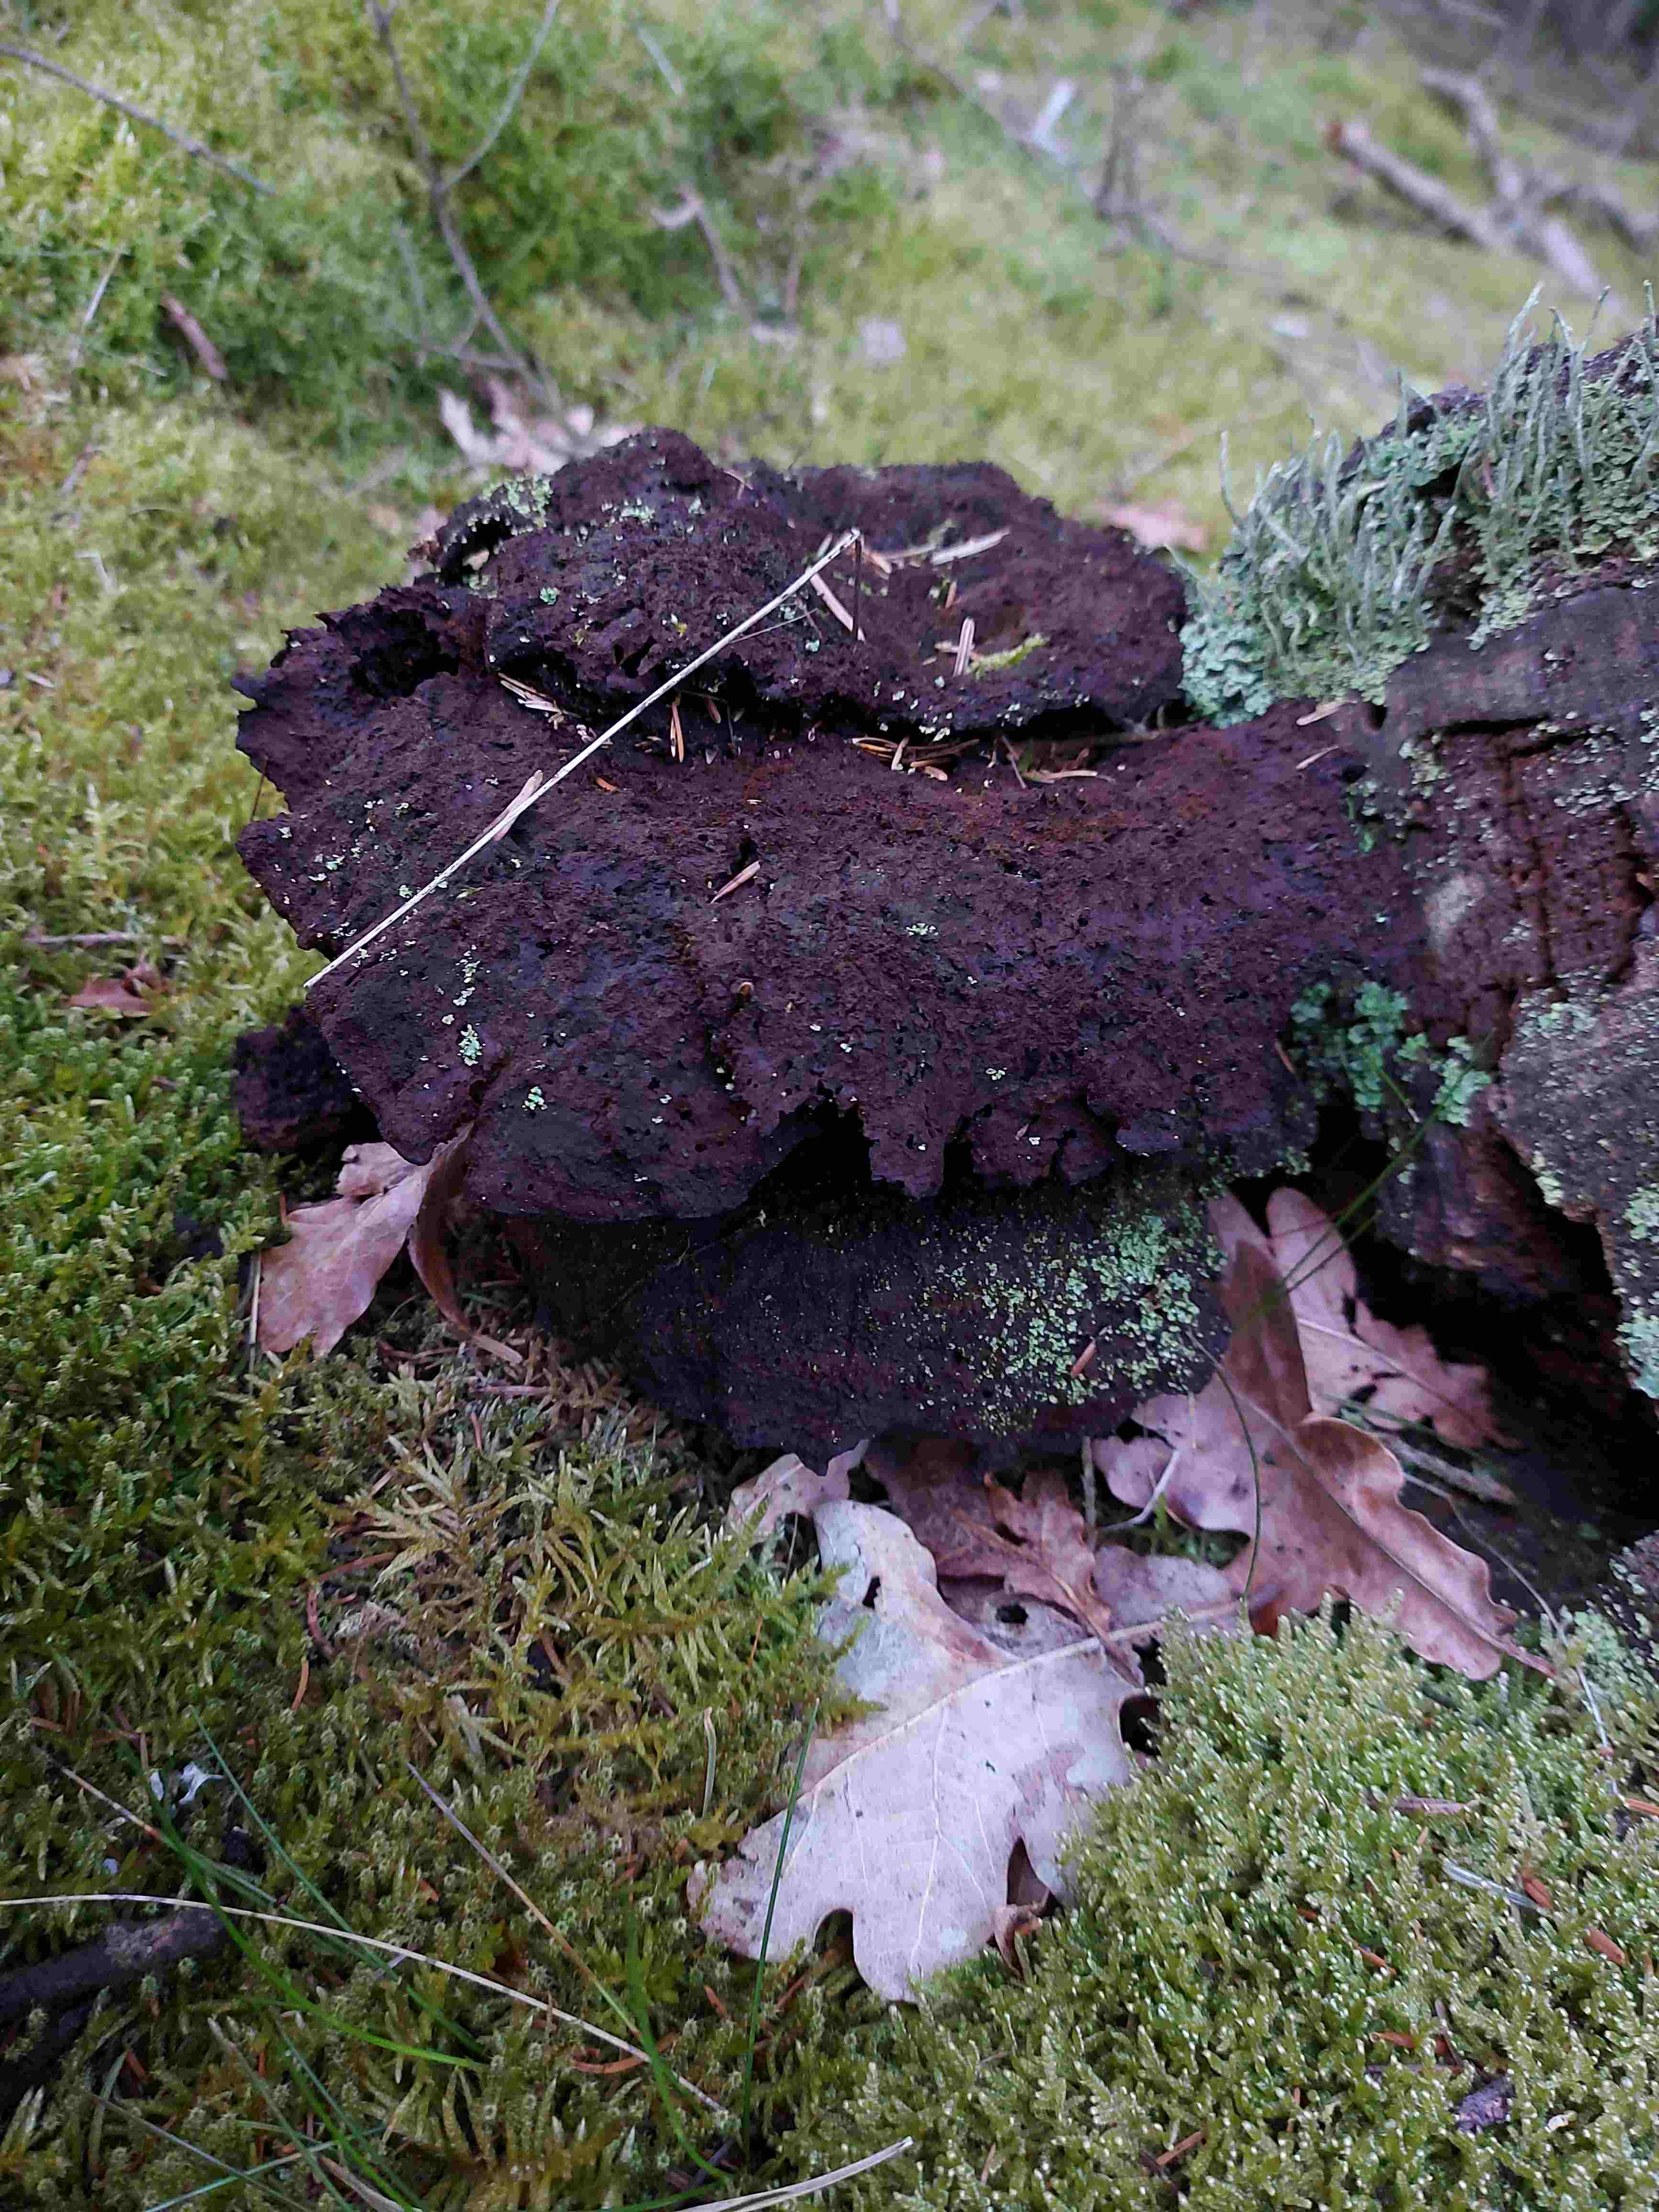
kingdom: Fungi
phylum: Basidiomycota
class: Agaricomycetes
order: Polyporales
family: Laetiporaceae
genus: Phaeolus
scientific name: Phaeolus schweinitzii
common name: brunporesvamp
